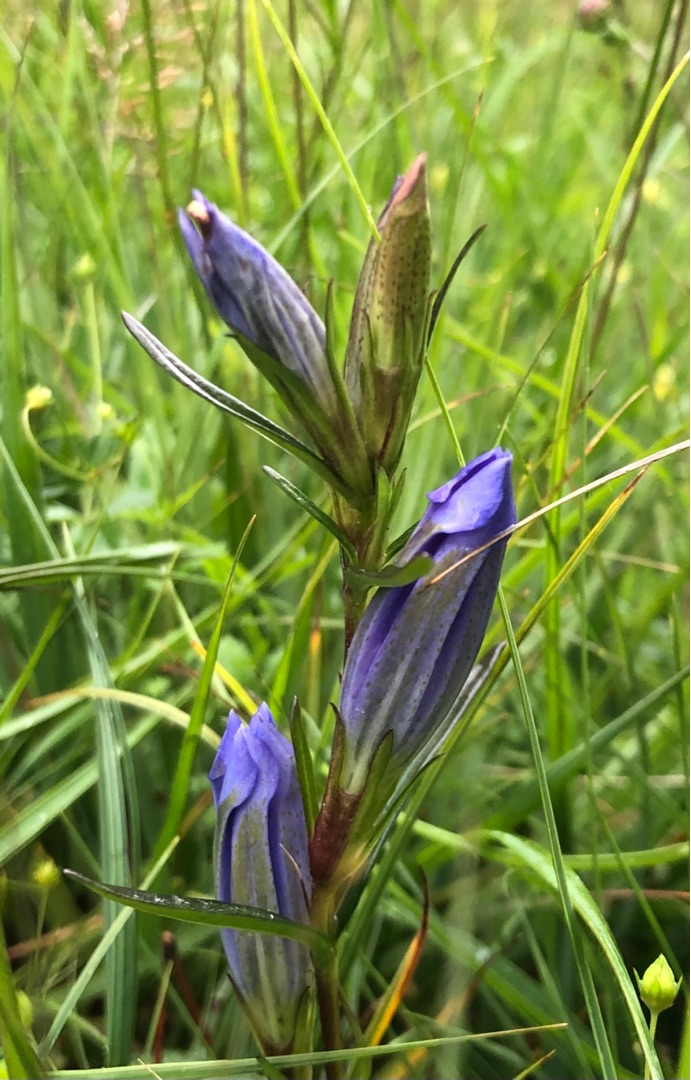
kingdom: Plantae
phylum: Tracheophyta
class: Magnoliopsida
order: Gentianales
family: Gentianaceae
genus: Gentiana
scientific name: Gentiana pneumonanthe
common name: Klokke-ensian
